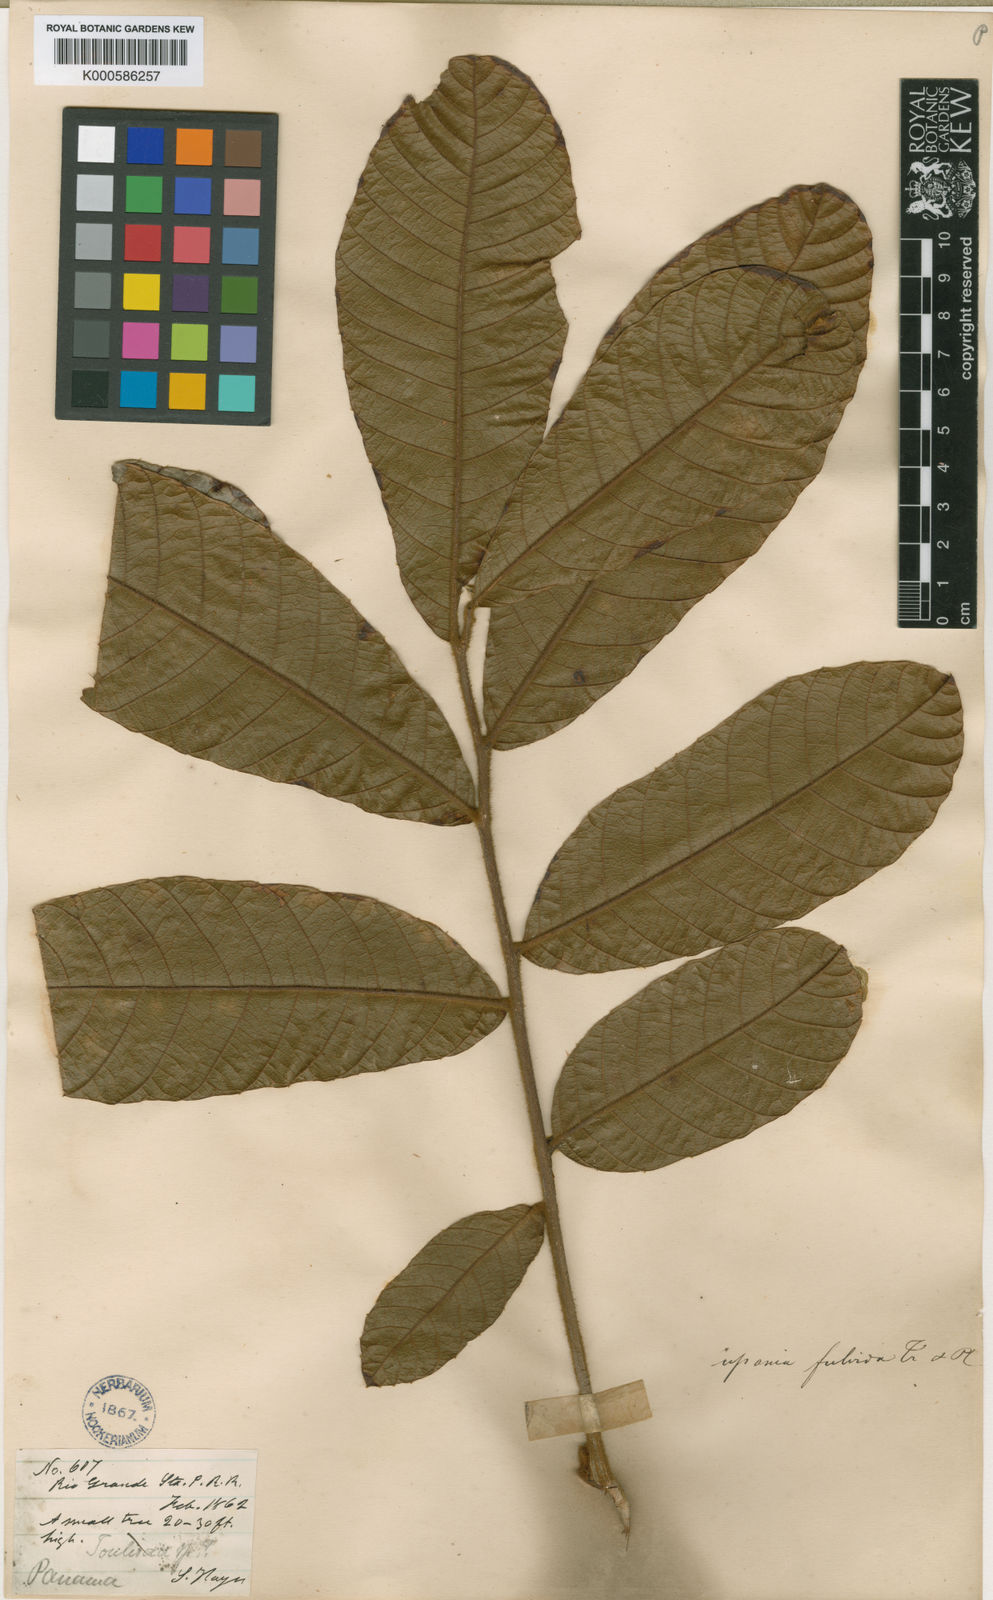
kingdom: Plantae
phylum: Tracheophyta
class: Magnoliopsida
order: Sapindales
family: Sapindaceae
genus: Cupania
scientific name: Cupania rufescens
